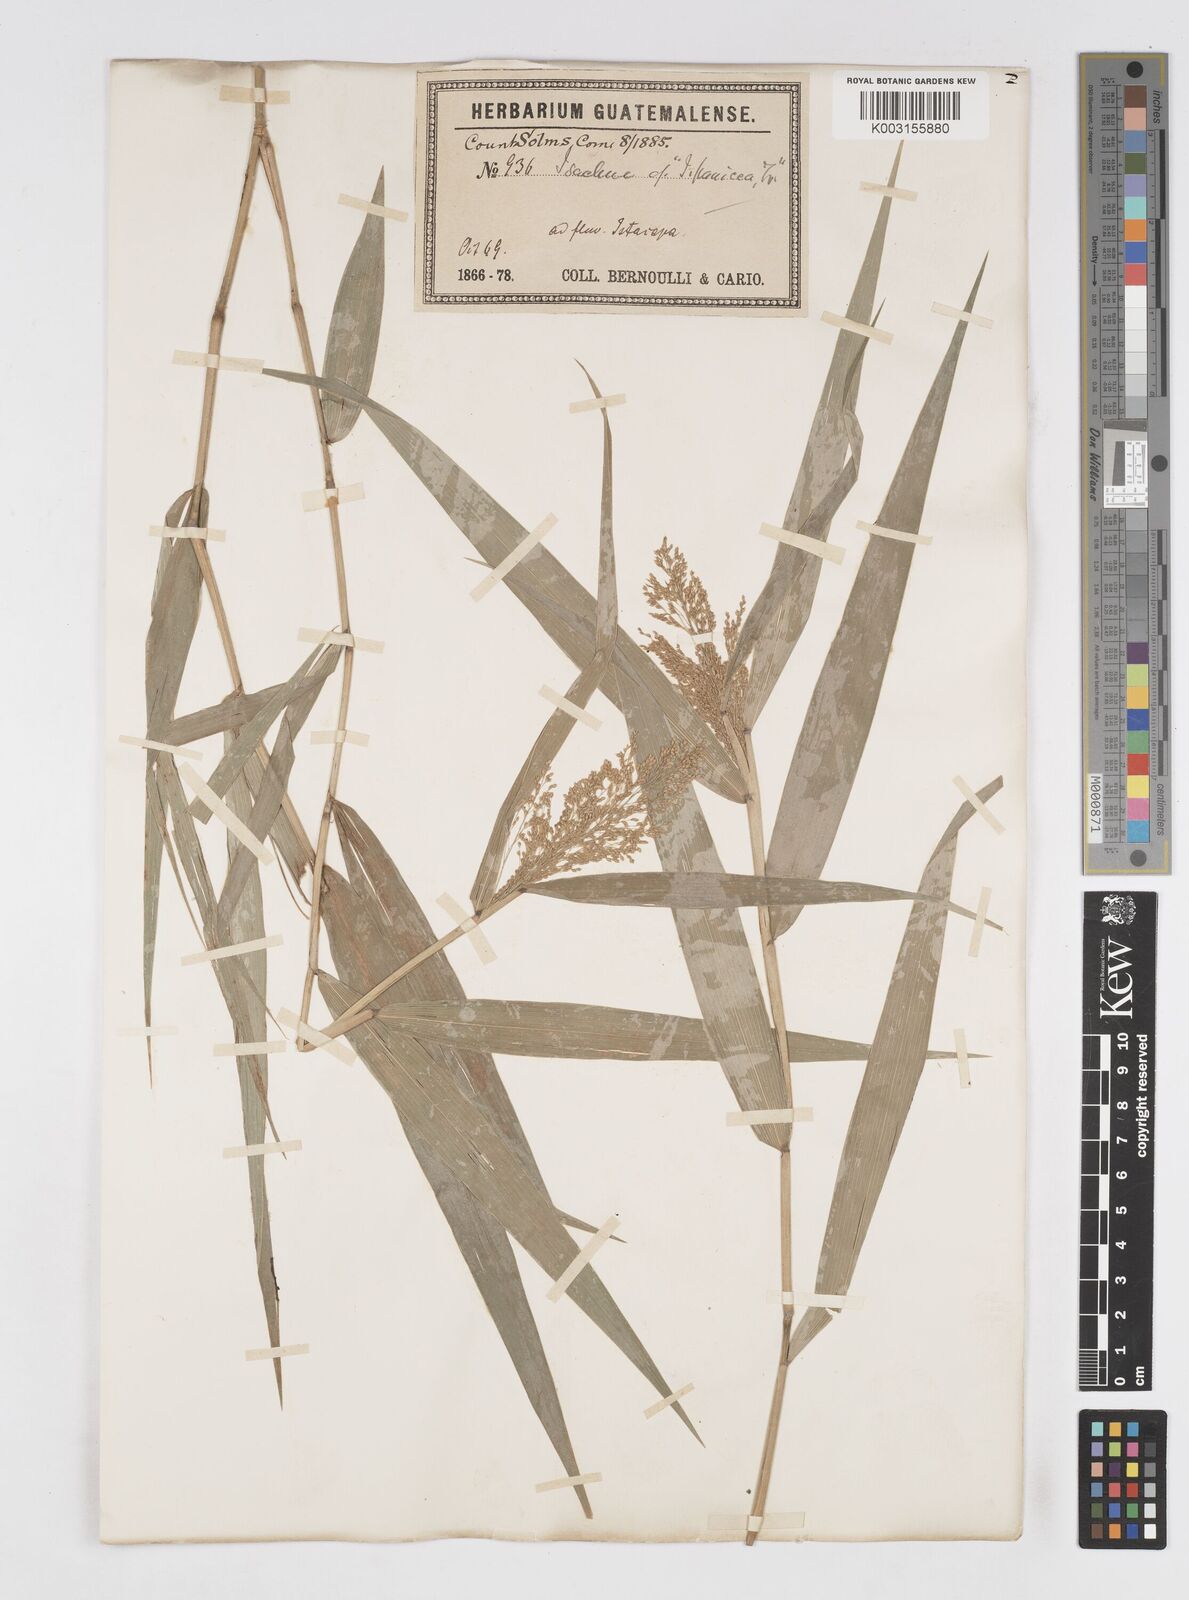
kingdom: Plantae
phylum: Tracheophyta
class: Liliopsida
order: Poales
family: Poaceae
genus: Isachne
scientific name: Isachne arundinacea
